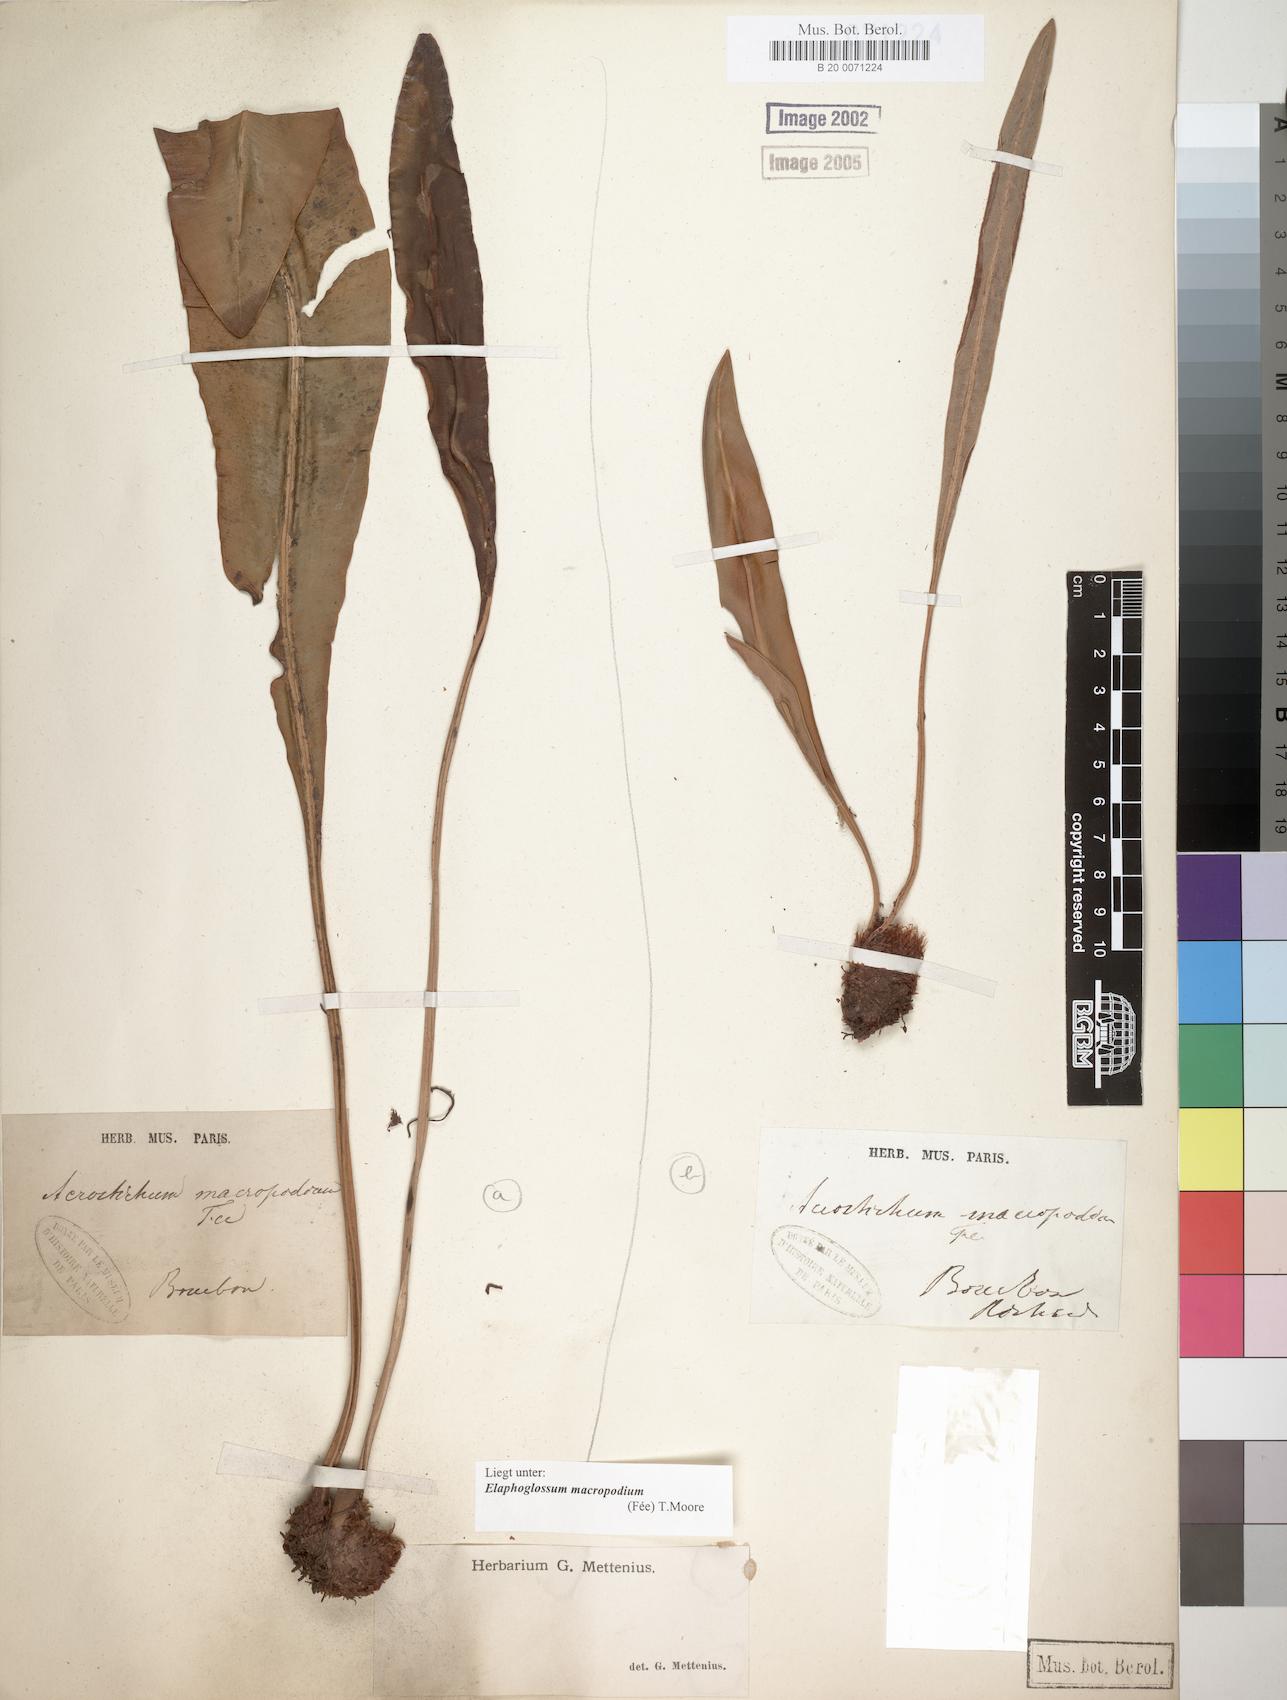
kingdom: Plantae
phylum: Tracheophyta
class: Polypodiopsida
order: Polypodiales
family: Dryopteridaceae
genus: Elaphoglossum
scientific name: Elaphoglossum macropodium
